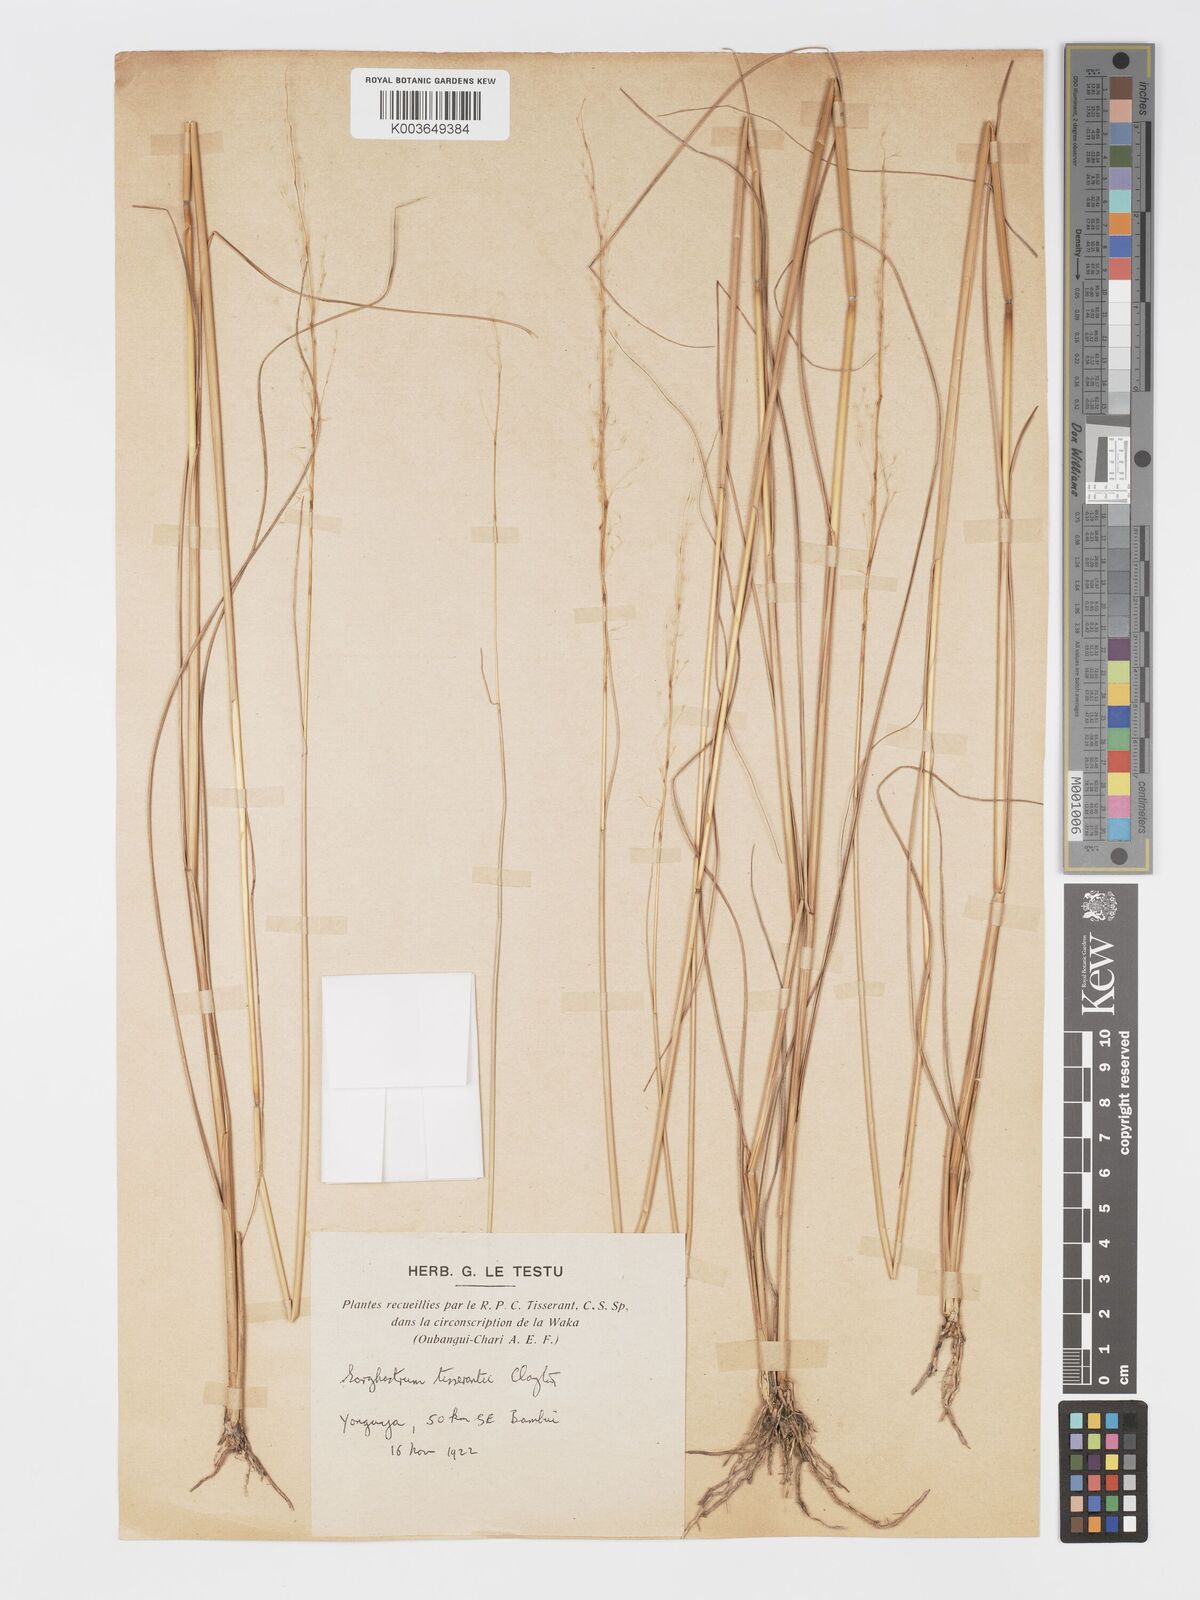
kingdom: Plantae
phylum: Tracheophyta
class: Liliopsida
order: Poales
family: Poaceae
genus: Sorghastrum
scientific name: Sorghastrum tisserantii
